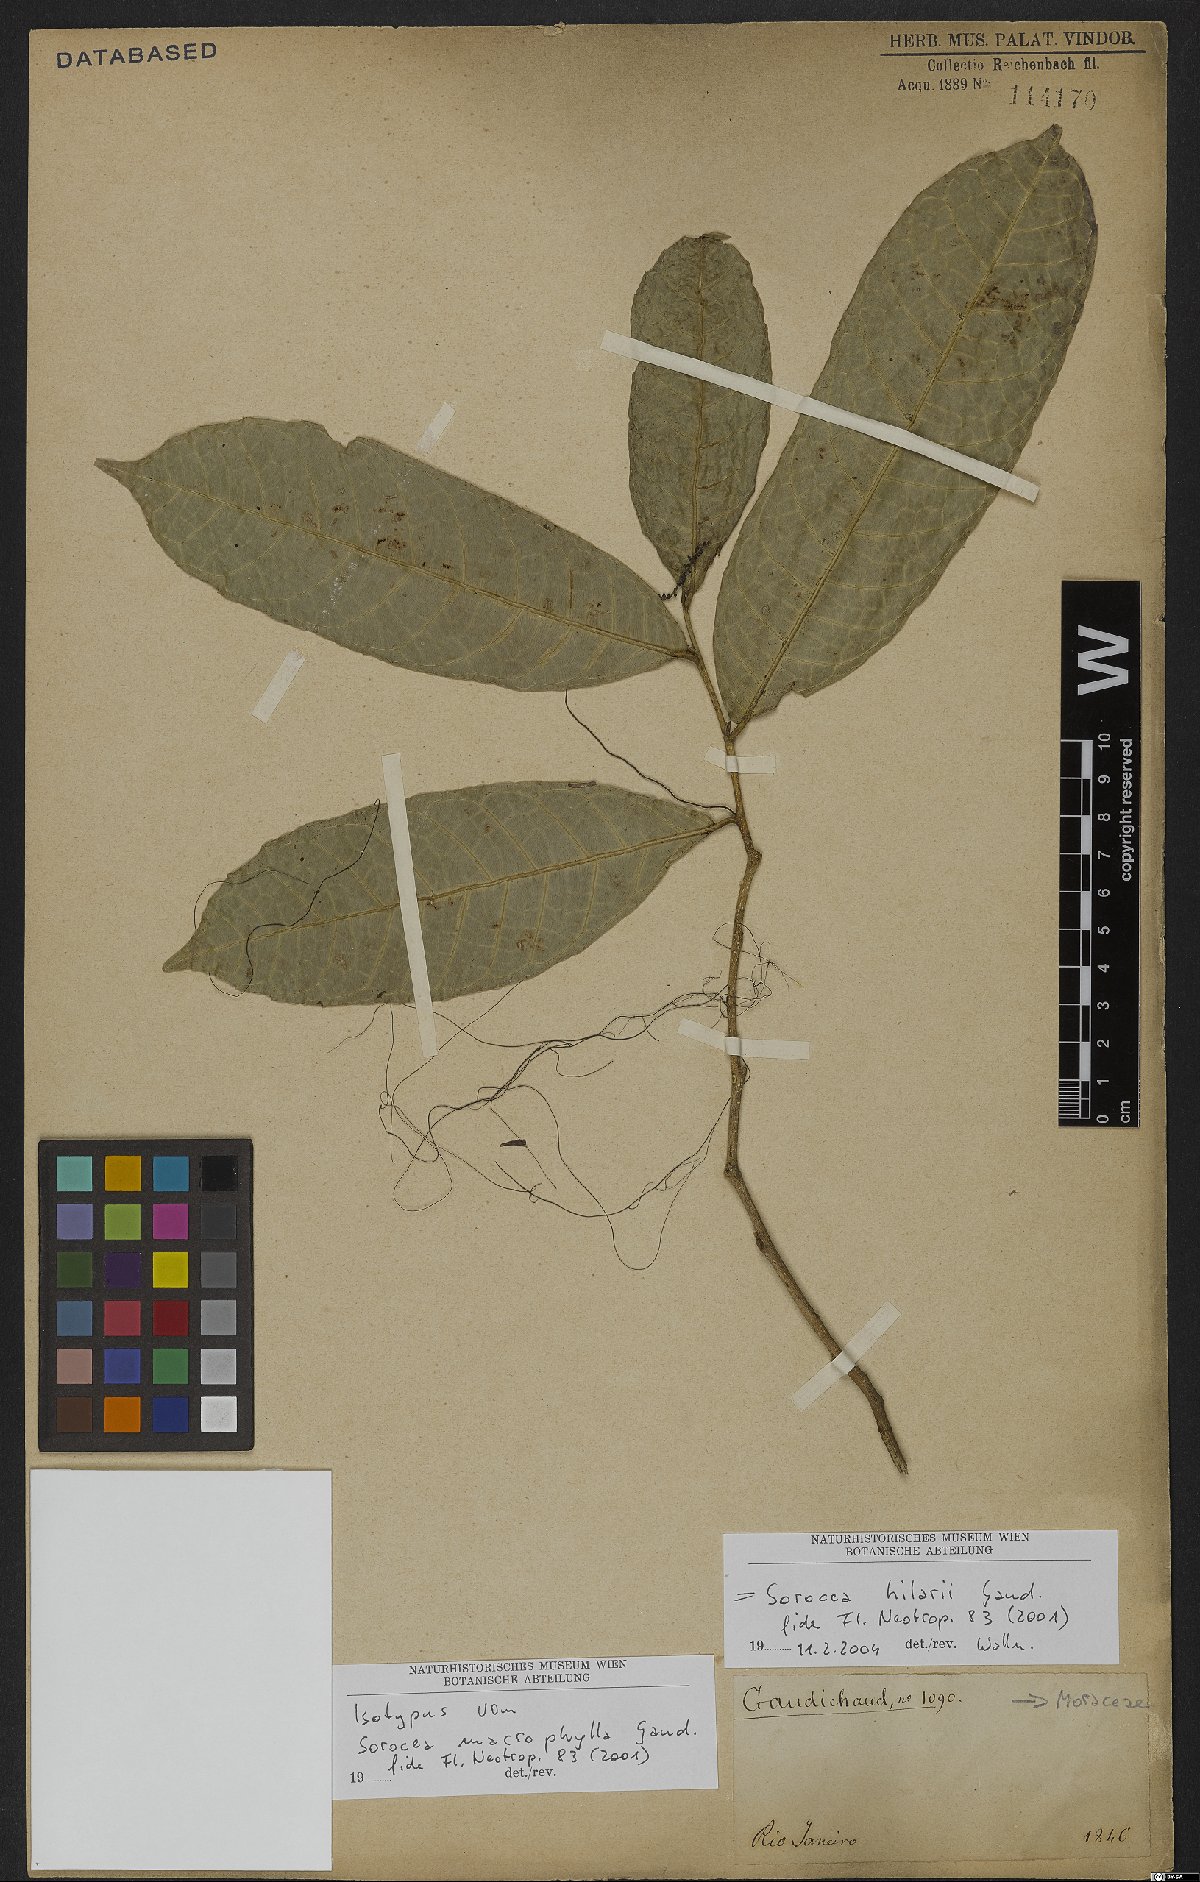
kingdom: Plantae
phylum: Tracheophyta
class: Magnoliopsida
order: Rosales
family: Moraceae
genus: Sorocea
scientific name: Sorocea hilarii
